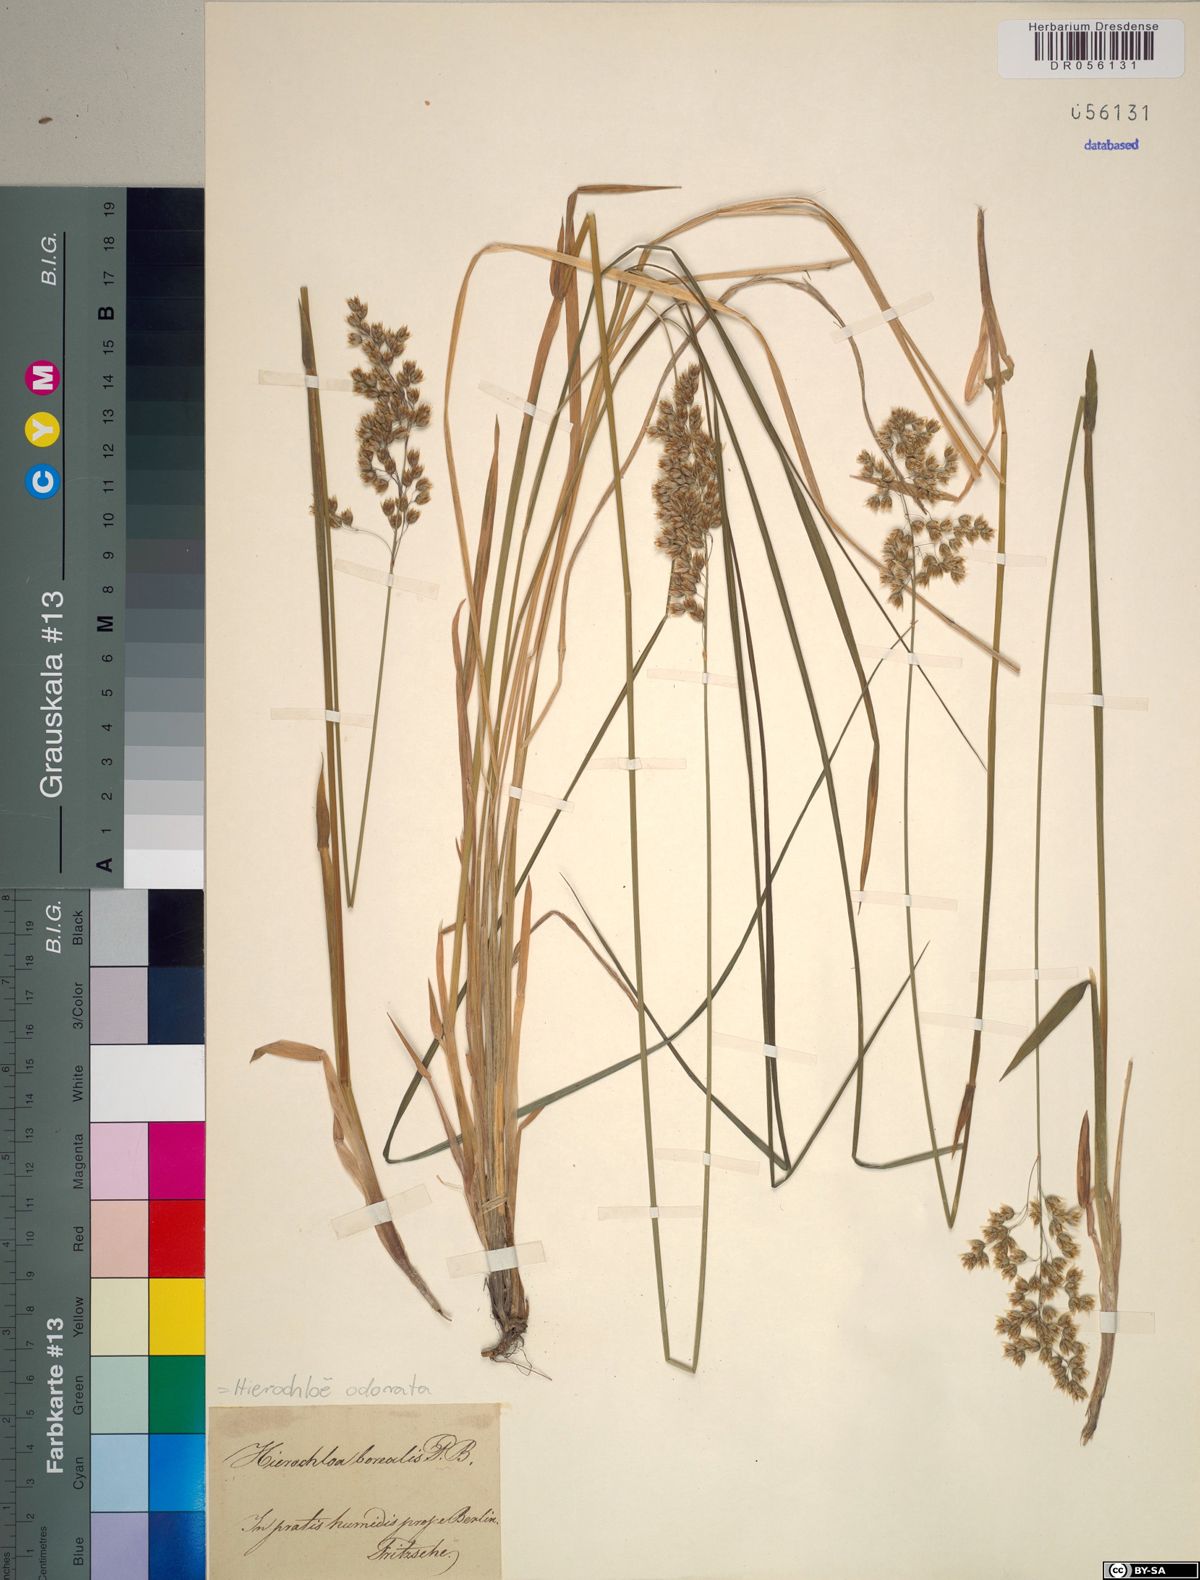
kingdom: Plantae
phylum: Tracheophyta
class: Liliopsida
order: Poales
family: Poaceae
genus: Anthoxanthum
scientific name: Anthoxanthum nitens
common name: Holy grass
